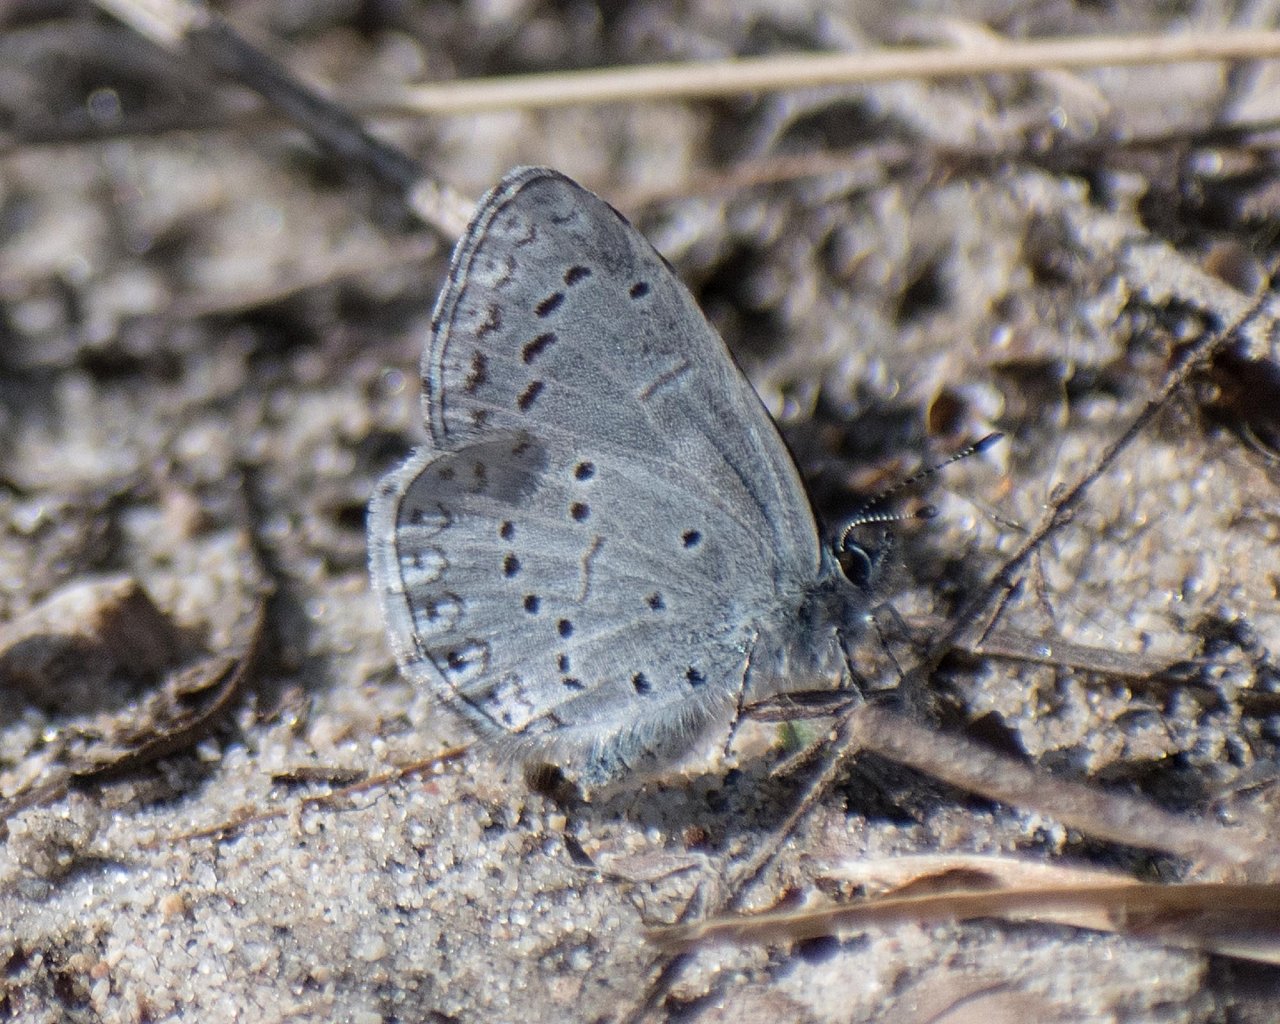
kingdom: Animalia
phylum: Arthropoda
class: Insecta
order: Lepidoptera
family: Lycaenidae
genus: Celastrina
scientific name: Celastrina ladon
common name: Echo Azure
